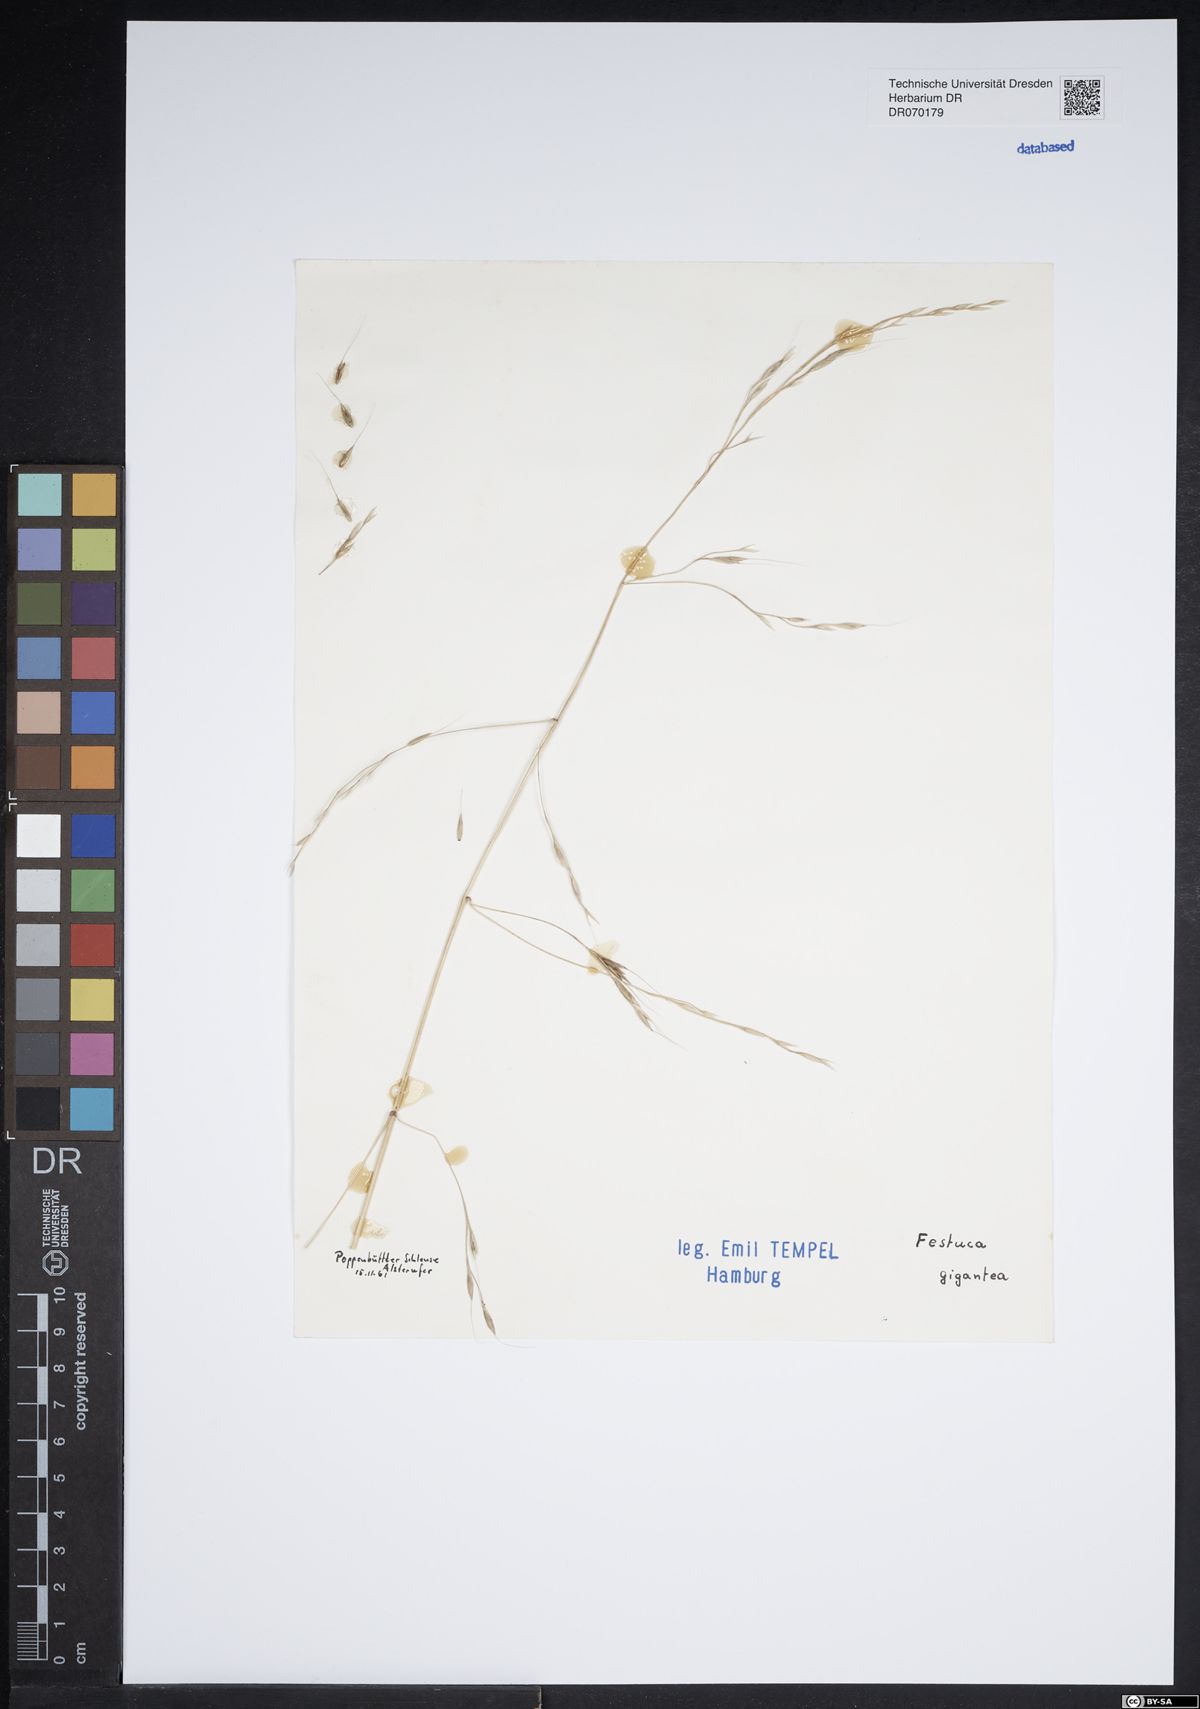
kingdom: Plantae
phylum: Tracheophyta
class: Liliopsida
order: Poales
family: Poaceae
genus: Lolium
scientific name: Lolium giganteum
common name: Giant fescue
